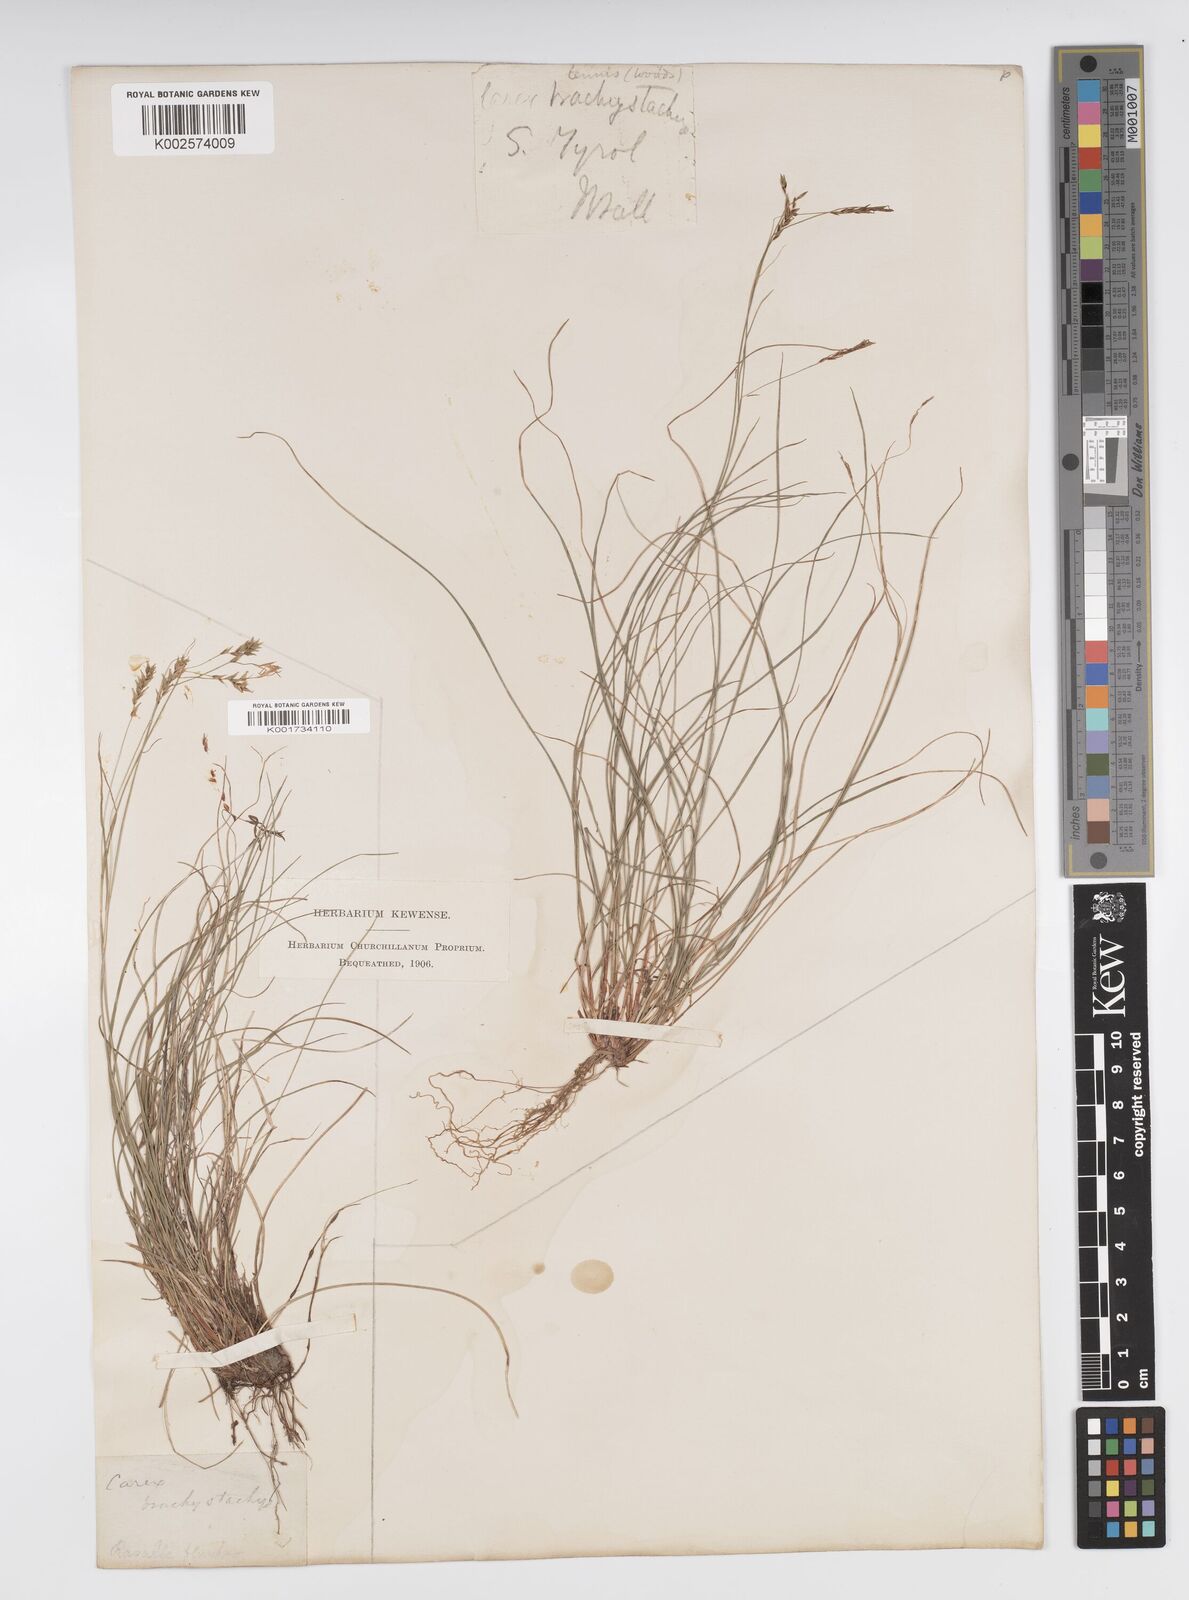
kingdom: Plantae
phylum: Tracheophyta
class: Liliopsida
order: Poales
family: Cyperaceae
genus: Carex
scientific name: Carex brachystachys
